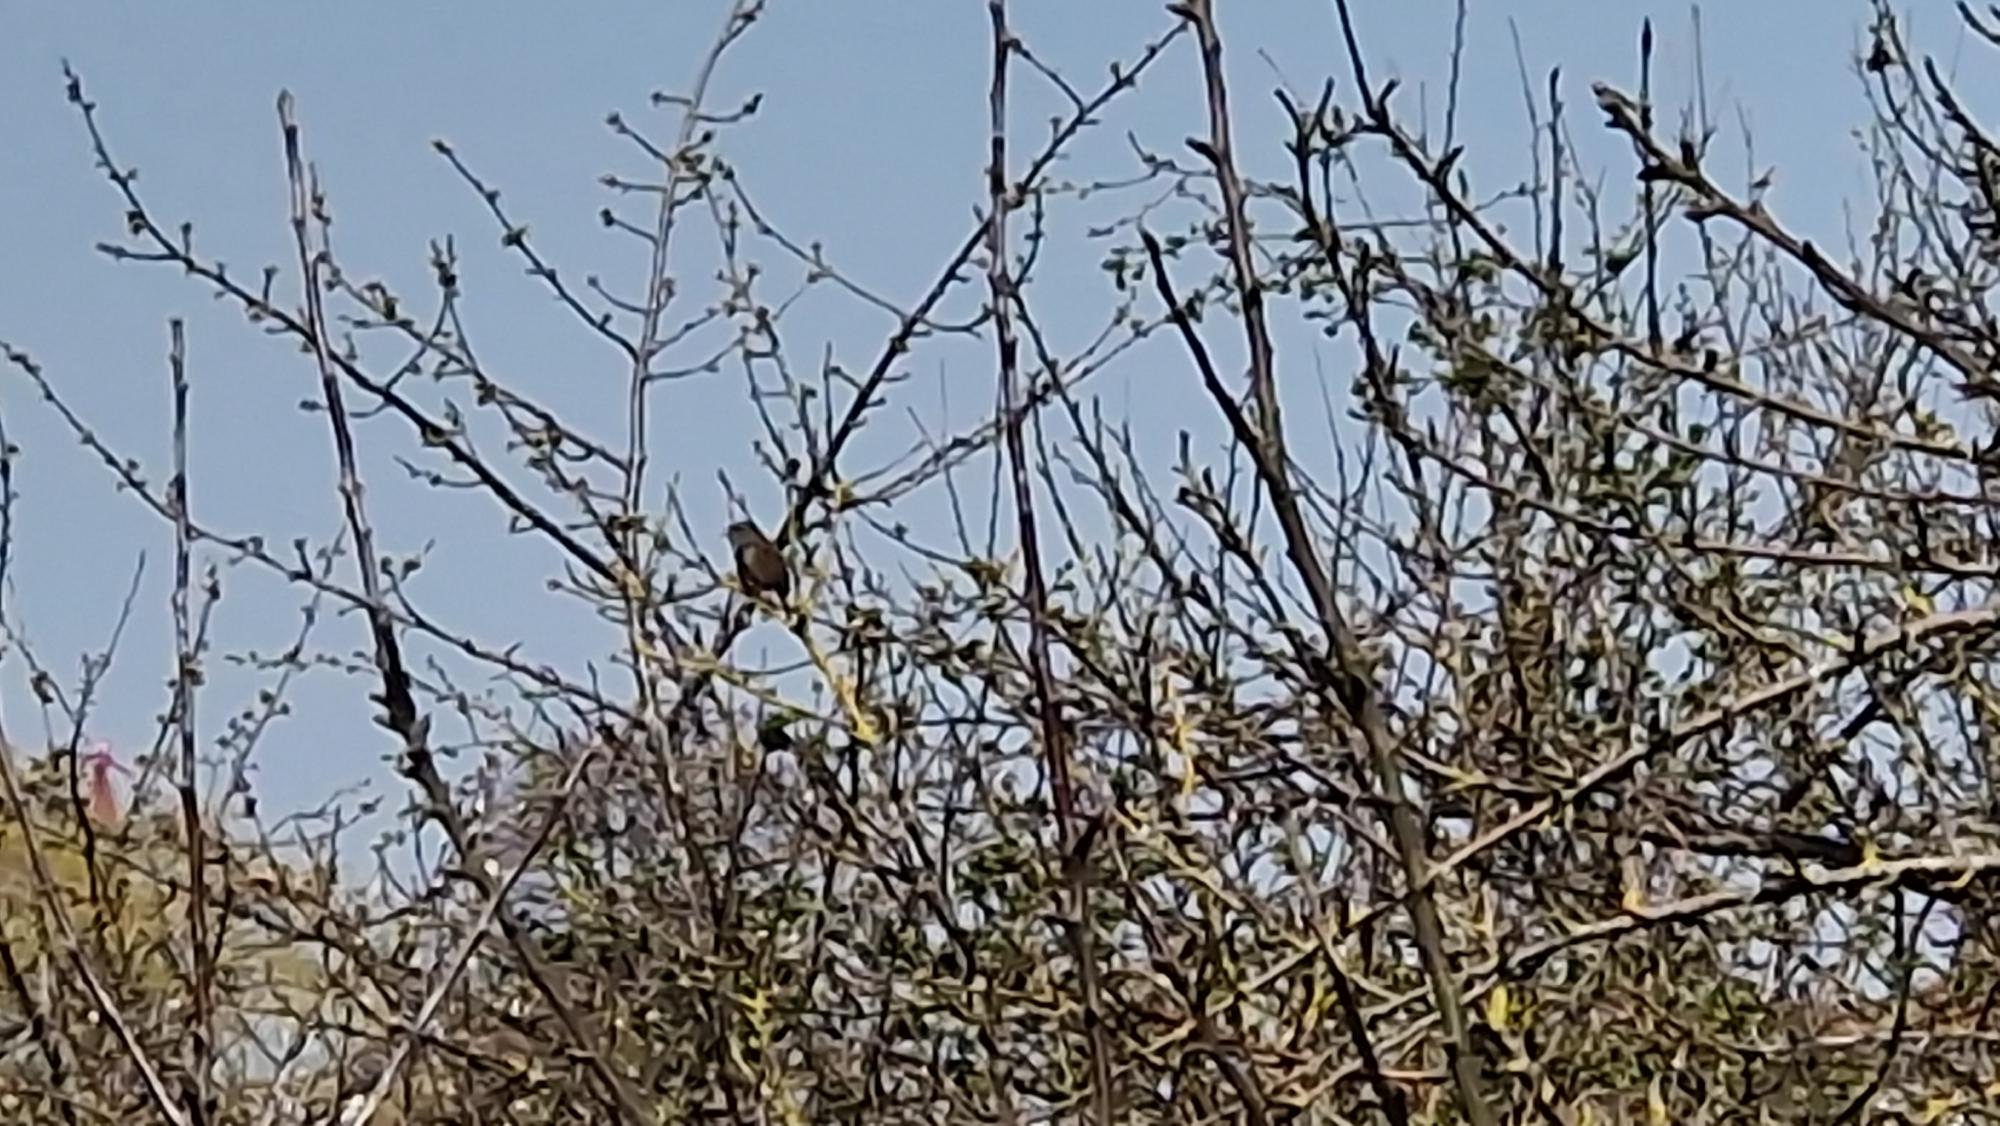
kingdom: Animalia
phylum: Chordata
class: Aves
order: Passeriformes
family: Prunellidae
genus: Prunella
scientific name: Prunella modularis
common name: Jernspurv
